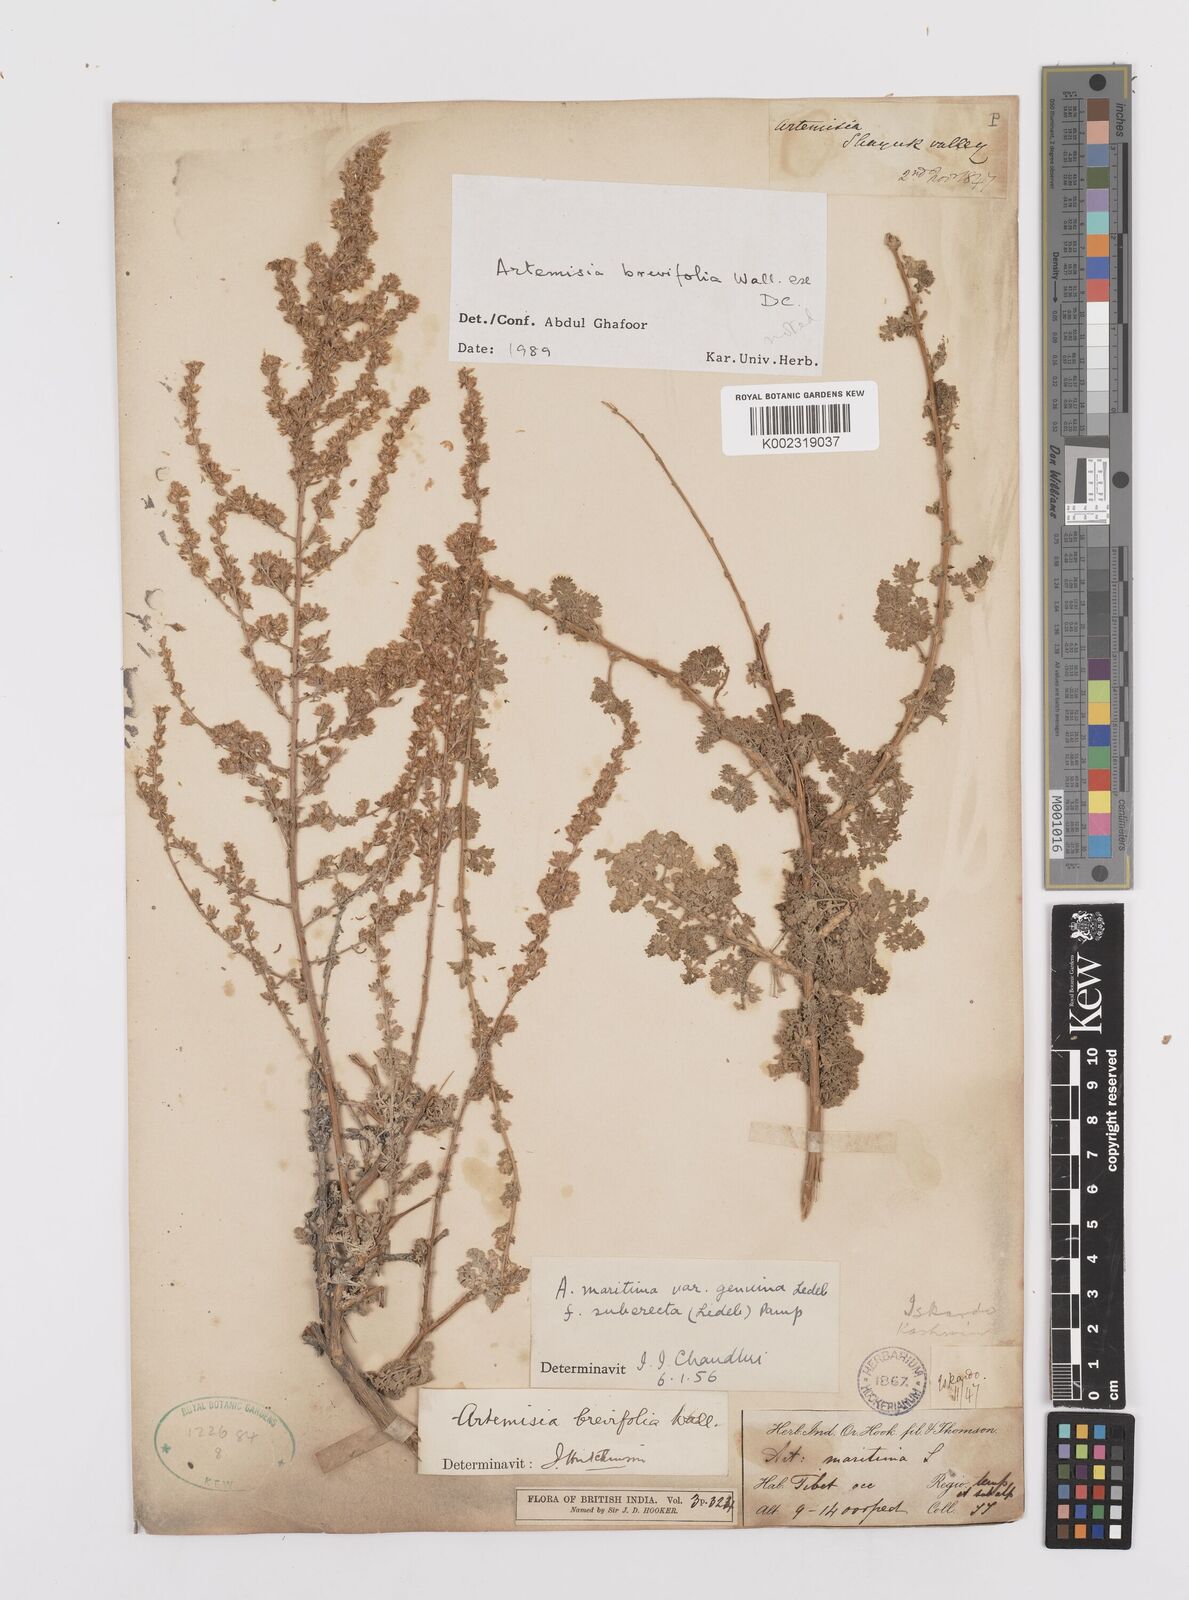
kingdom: Plantae
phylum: Tracheophyta
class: Magnoliopsida
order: Asterales
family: Asteraceae
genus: Artemisia
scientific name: Artemisia brevifolia
